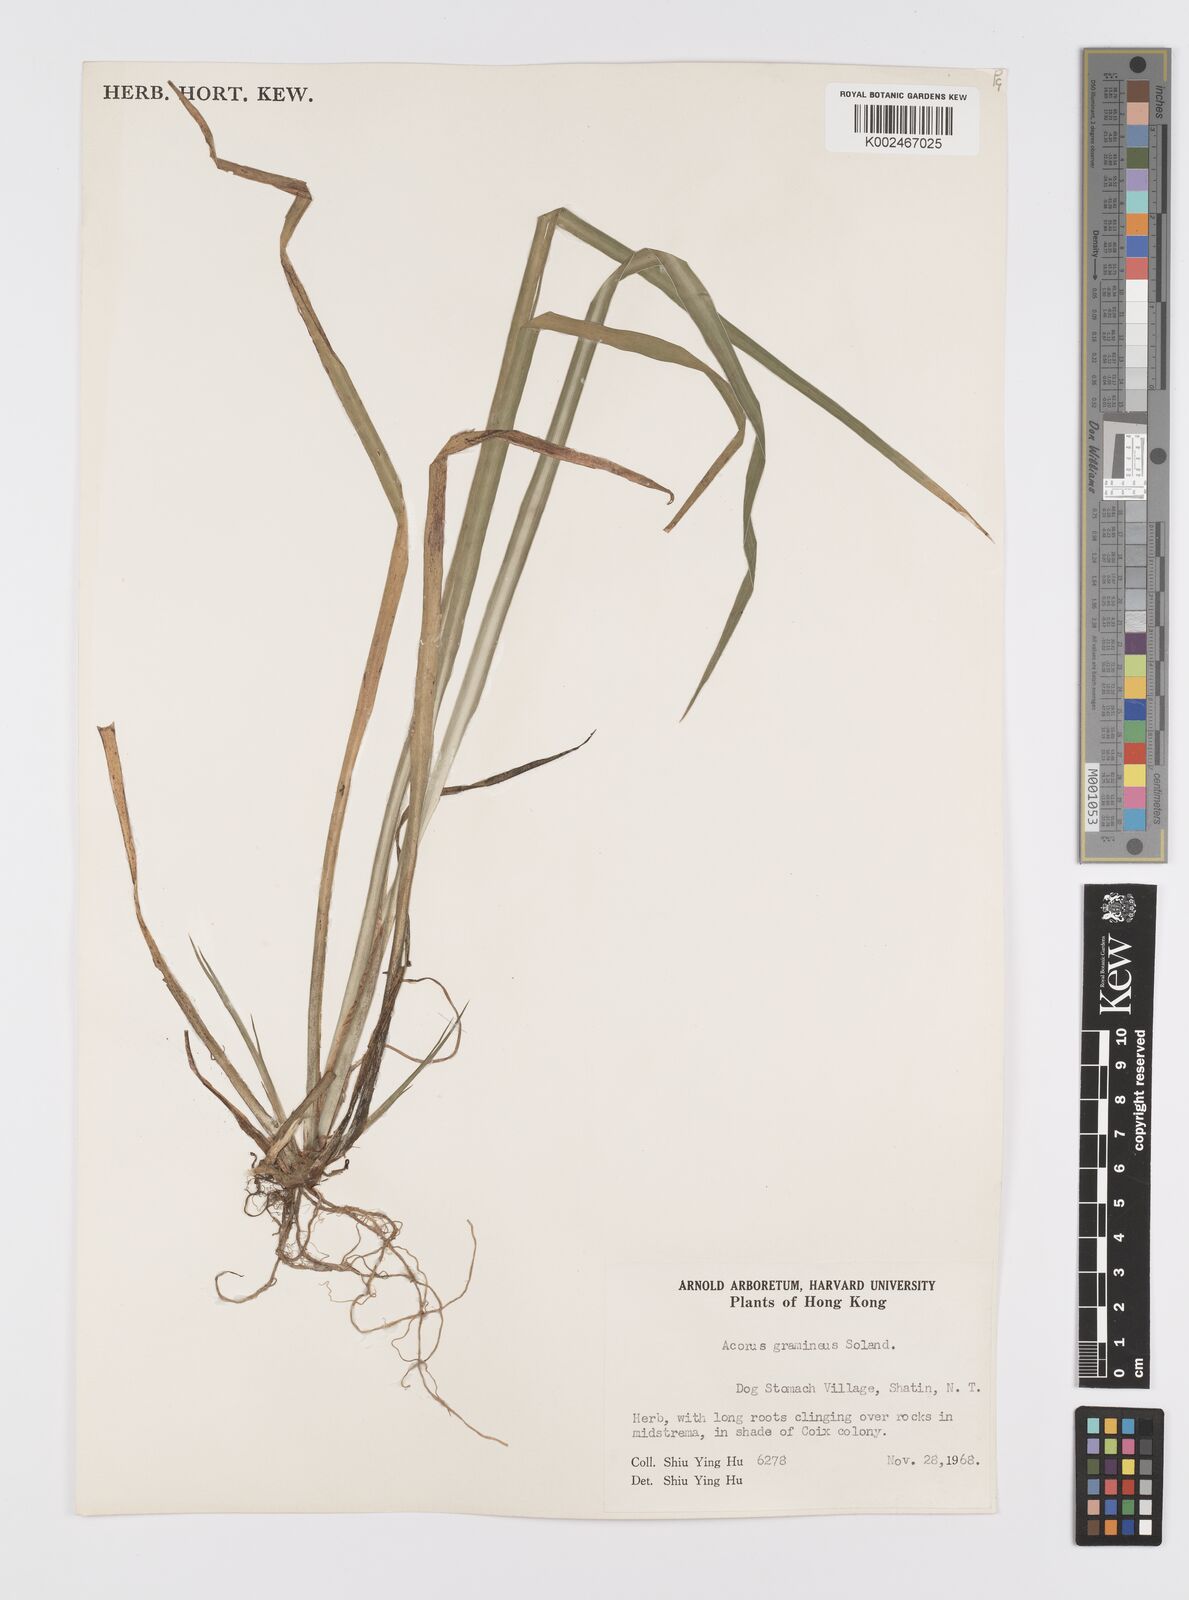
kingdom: Plantae
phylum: Tracheophyta
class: Liliopsida
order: Acorales
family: Acoraceae
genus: Acorus
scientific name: Acorus gramineus
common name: Slender sweet-flag
